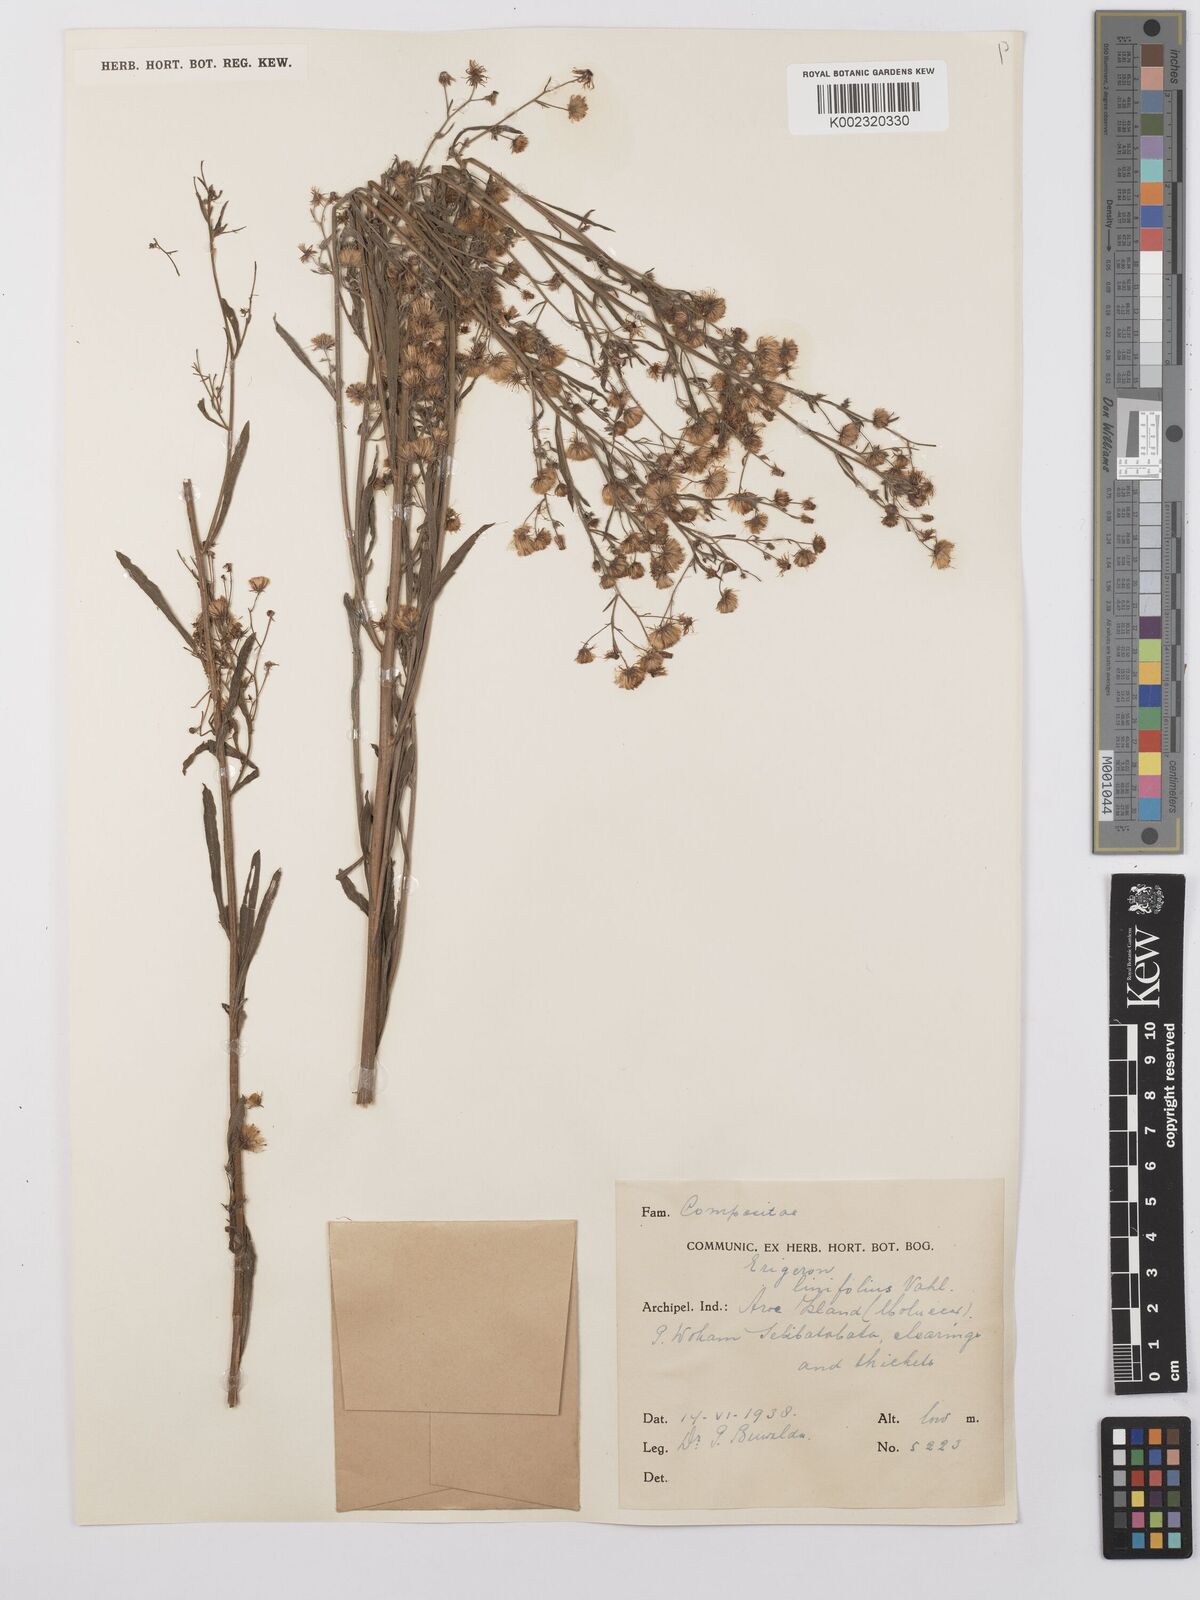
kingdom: Plantae
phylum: Tracheophyta
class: Magnoliopsida
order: Asterales
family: Asteraceae
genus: Erigeron
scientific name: Erigeron sumatrensis
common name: Daisy
